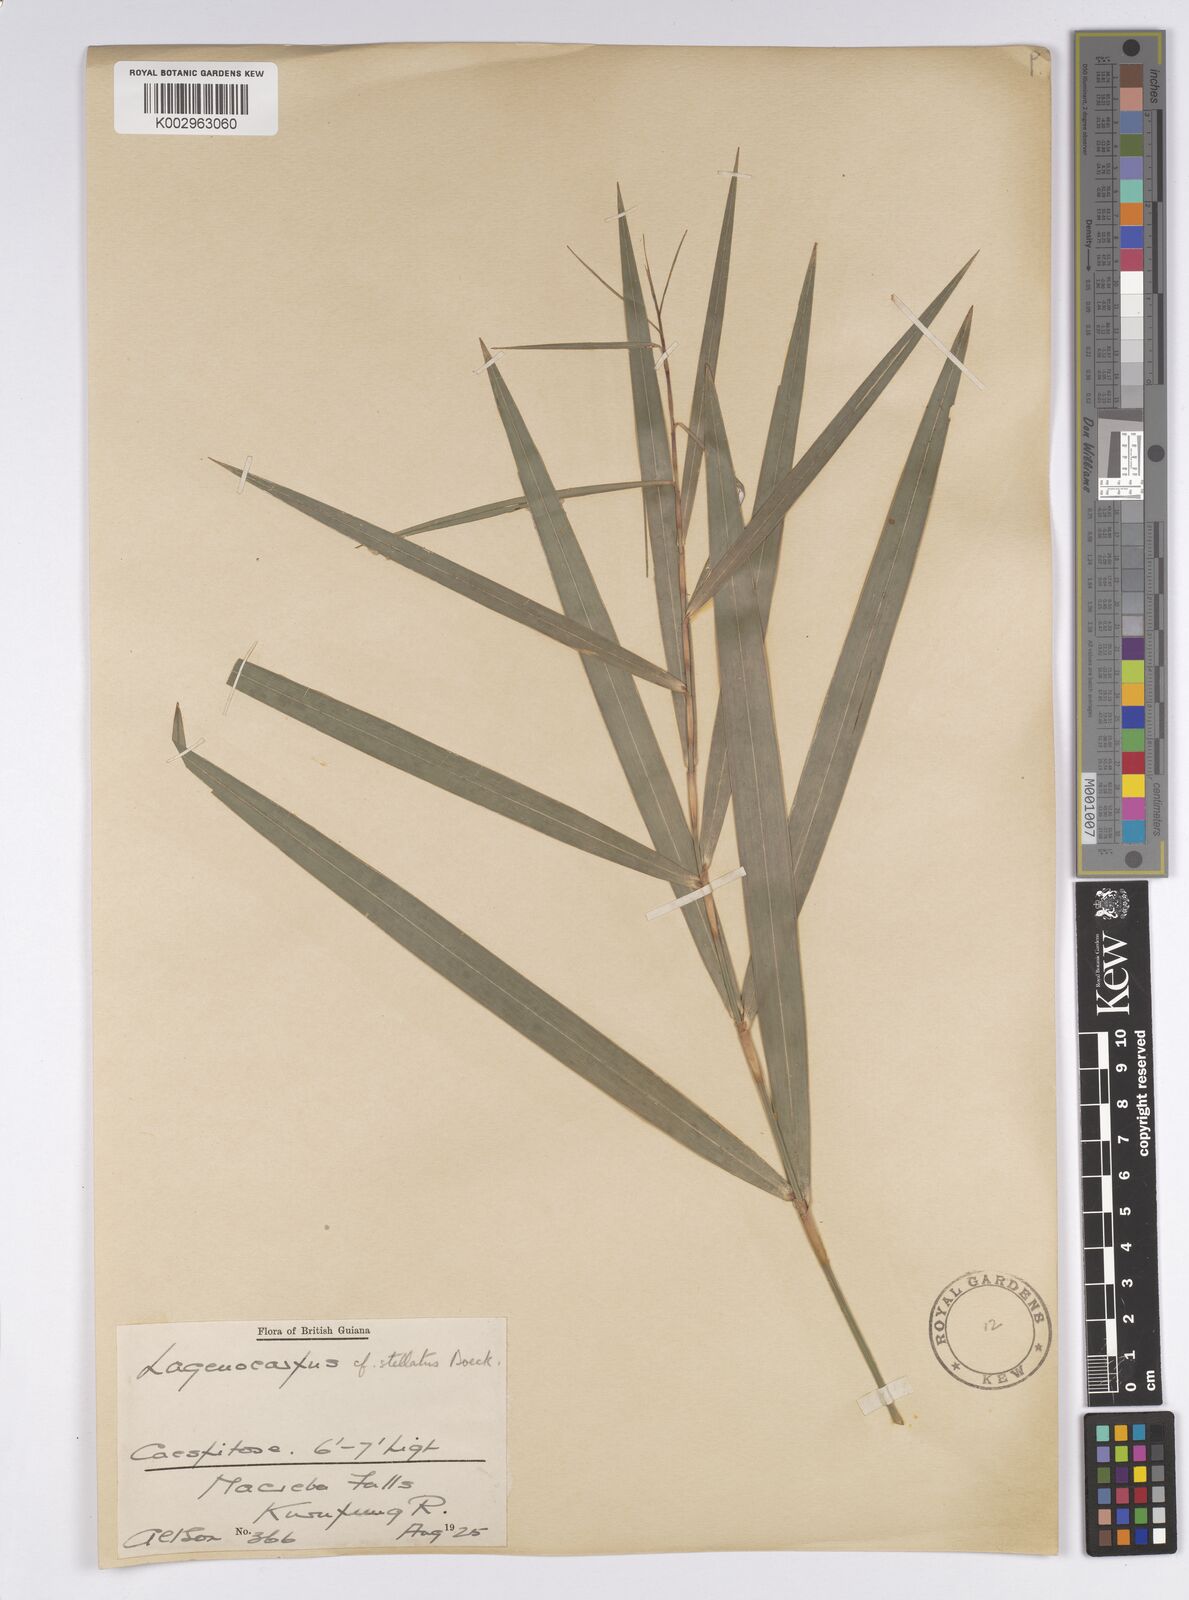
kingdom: Plantae
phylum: Tracheophyta
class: Liliopsida
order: Poales
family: Cyperaceae
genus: Didymiandrum
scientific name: Didymiandrum stellatum
